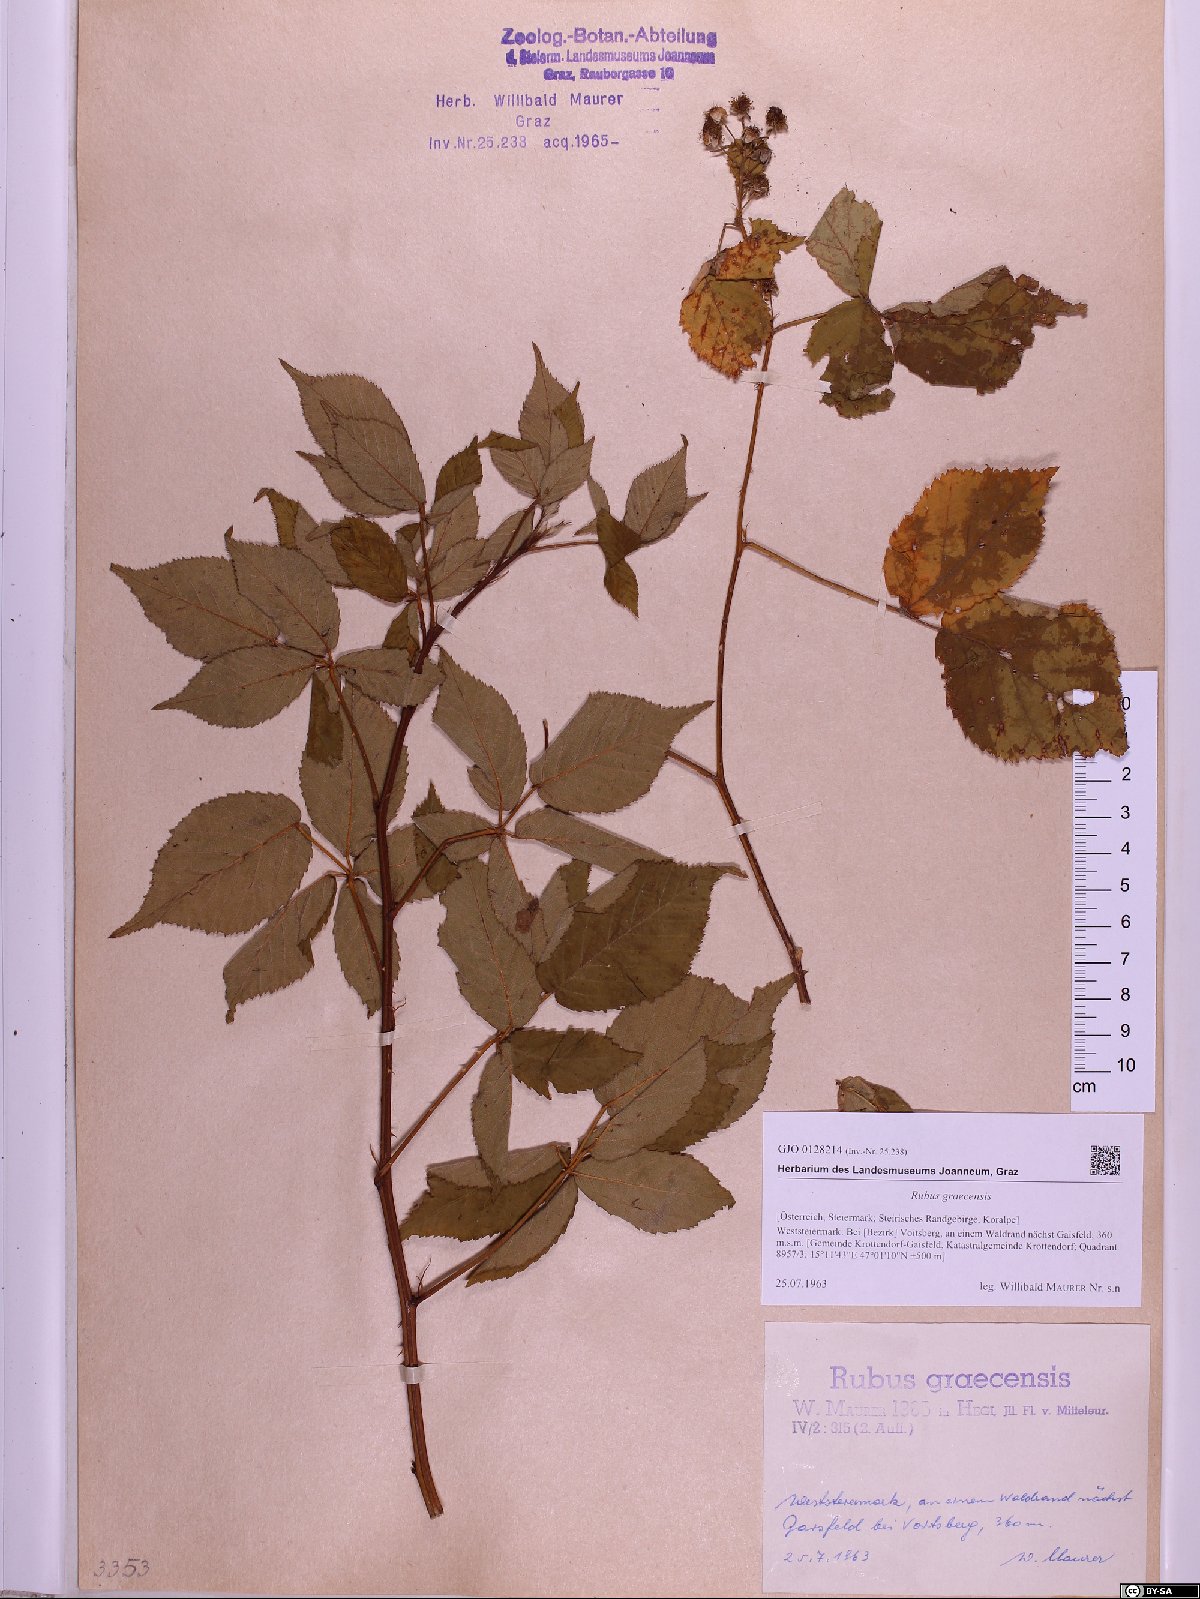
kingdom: Plantae
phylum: Tracheophyta
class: Magnoliopsida
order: Rosales
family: Rosaceae
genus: Rubus
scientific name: Rubus graecensis
